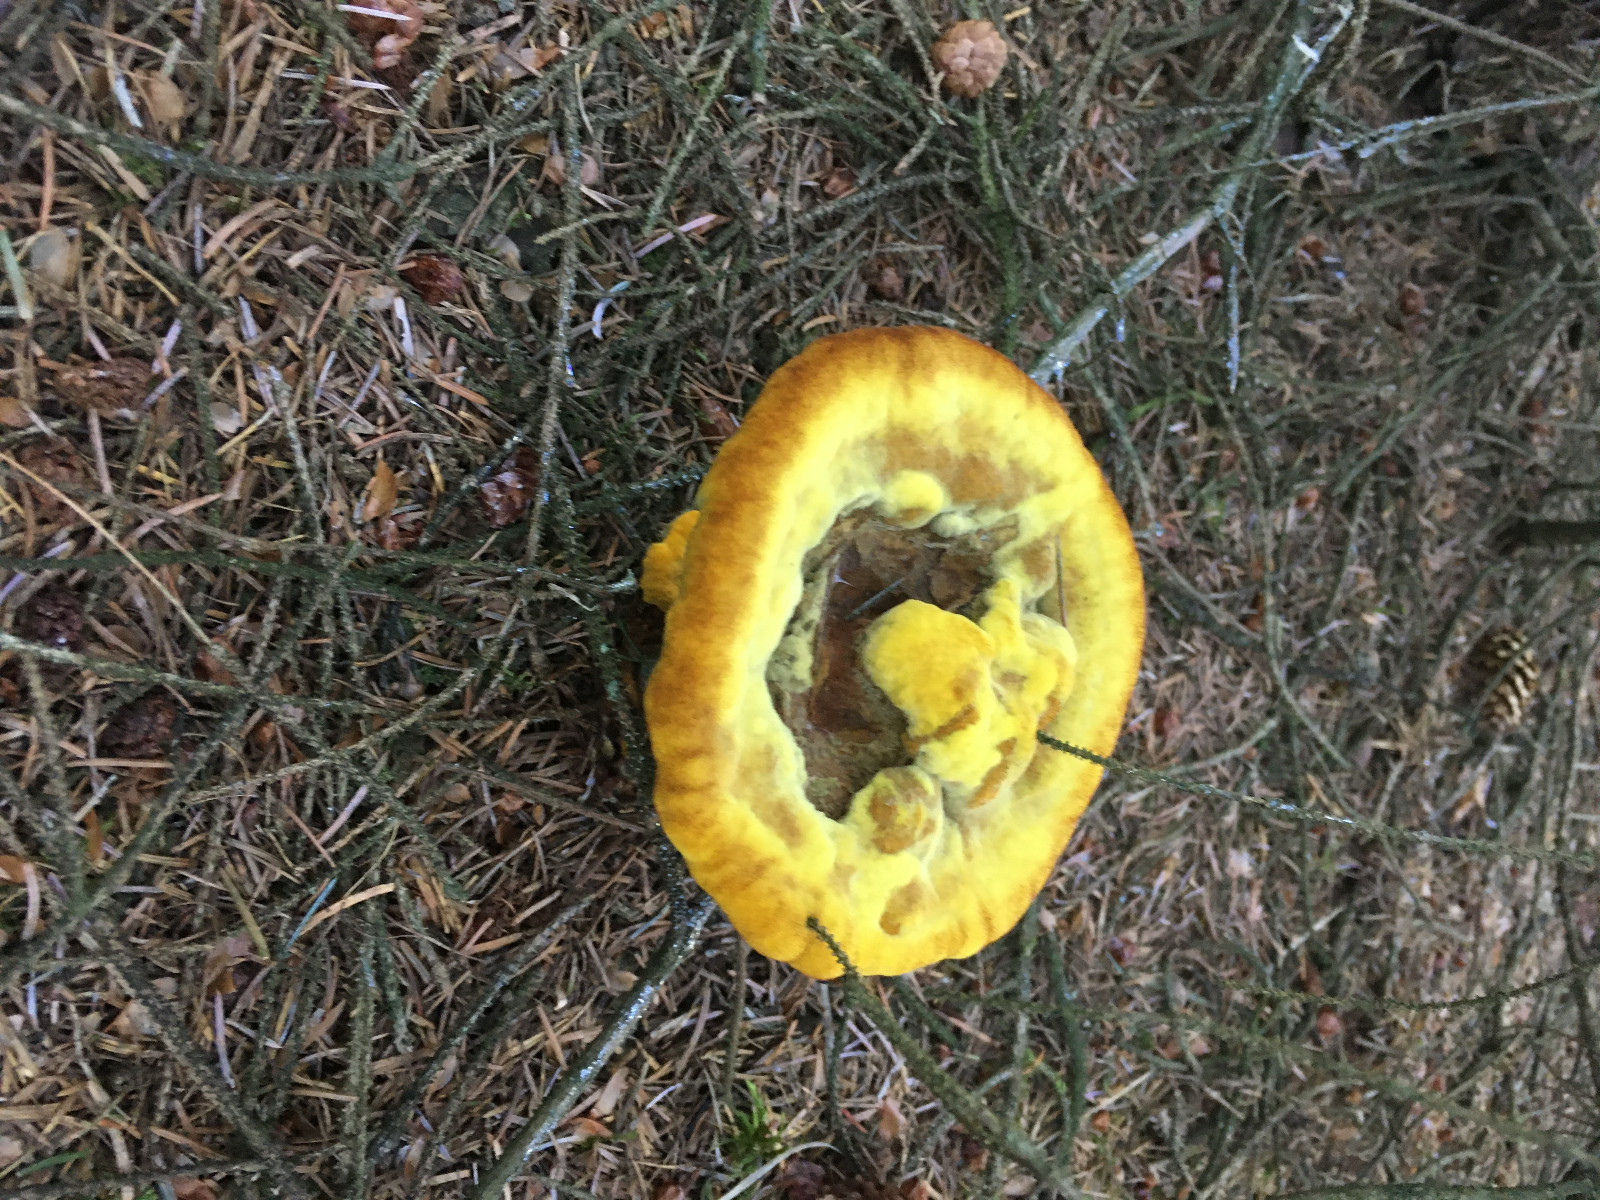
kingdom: Fungi
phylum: Basidiomycota
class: Agaricomycetes
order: Polyporales
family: Laetiporaceae
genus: Phaeolus
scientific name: Phaeolus schweinitzii
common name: brunporesvamp
